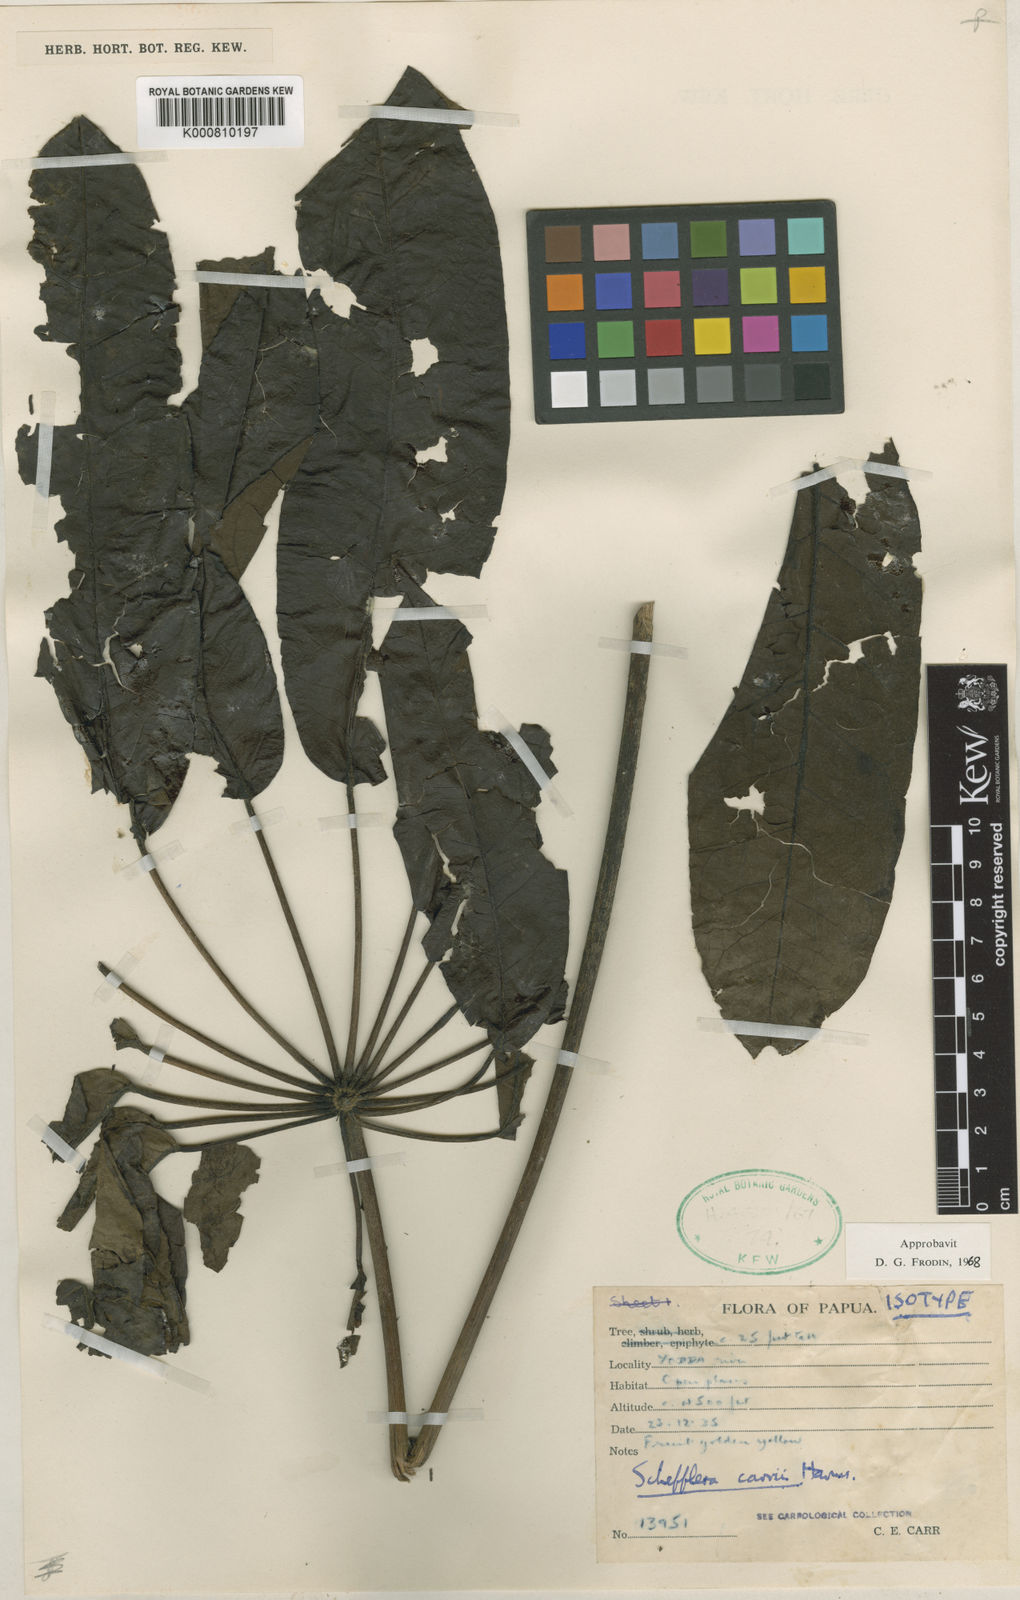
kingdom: Plantae
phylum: Tracheophyta
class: Magnoliopsida
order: Apiales
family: Araliaceae
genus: Heptapleurum
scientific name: Heptapleurum carrii
